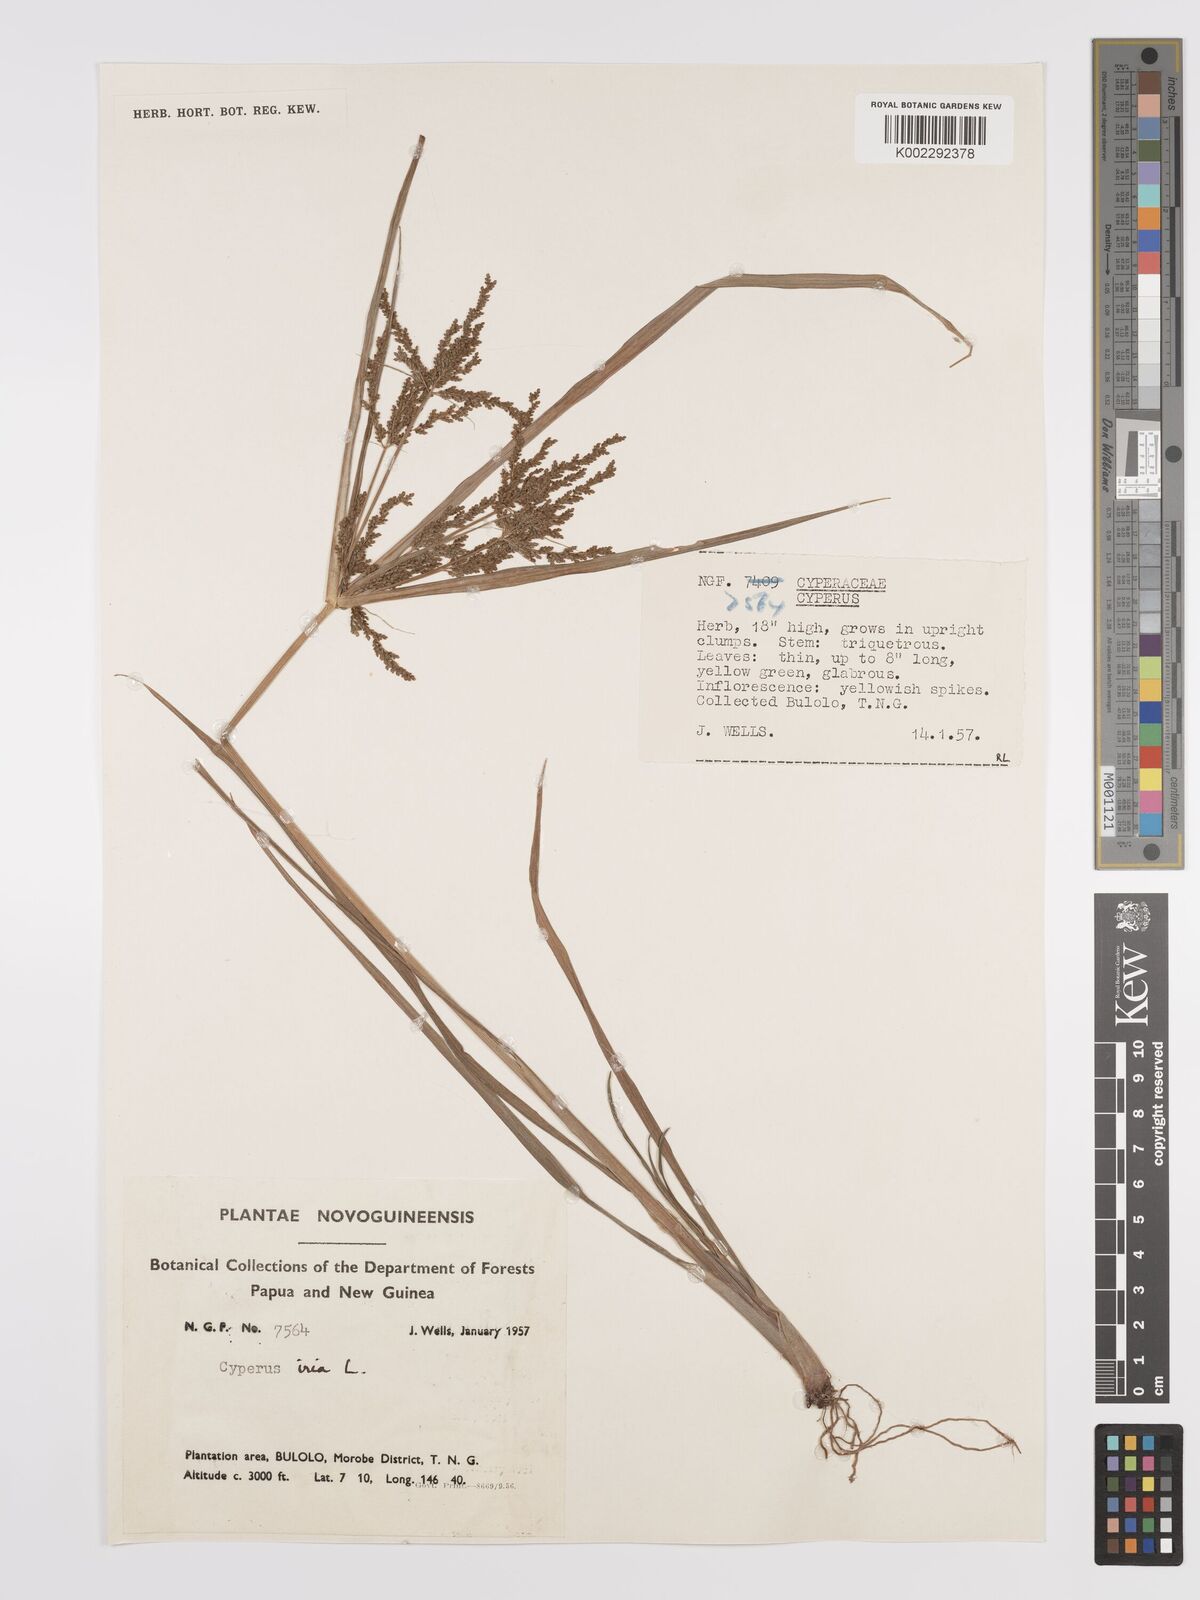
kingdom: Plantae
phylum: Tracheophyta
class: Liliopsida
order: Poales
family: Cyperaceae
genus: Cyperus
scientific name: Cyperus iria
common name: Ricefield flatsedge
